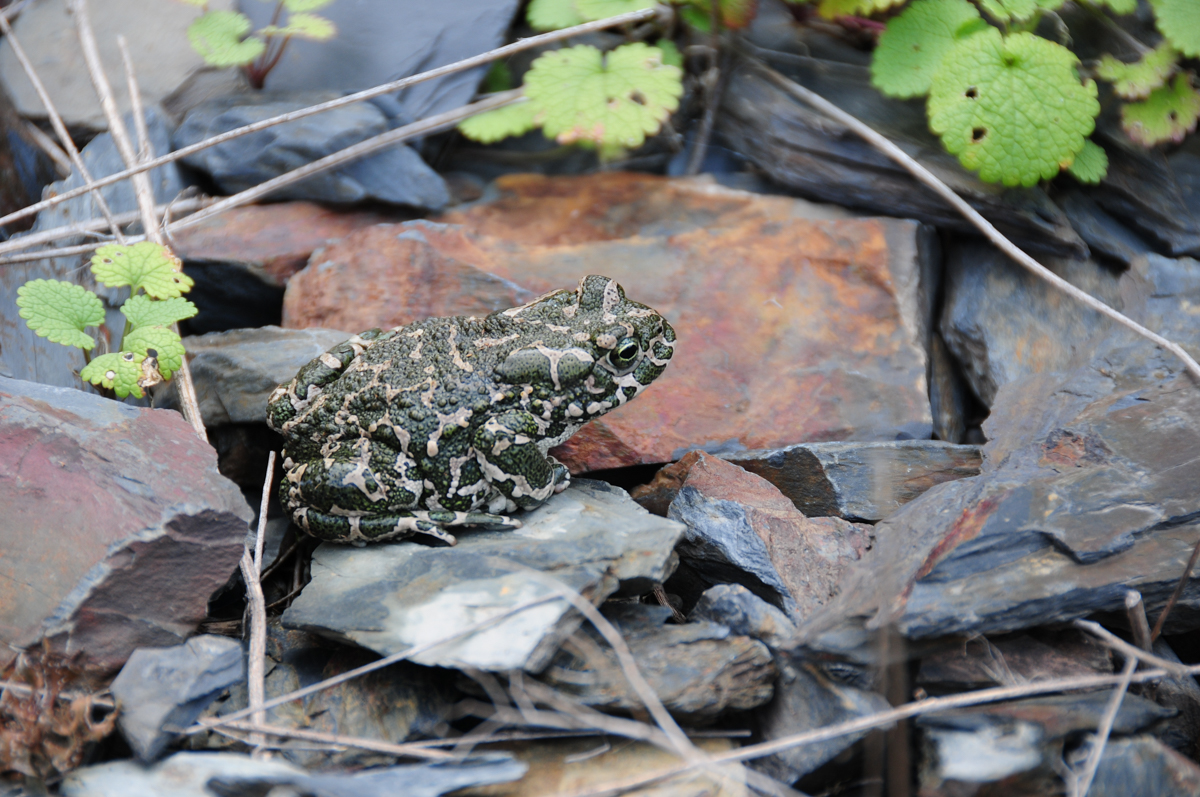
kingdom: Animalia
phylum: Chordata
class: Amphibia
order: Anura
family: Bufonidae
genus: Bufotes
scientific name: Bufotes viridis
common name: European green toad
